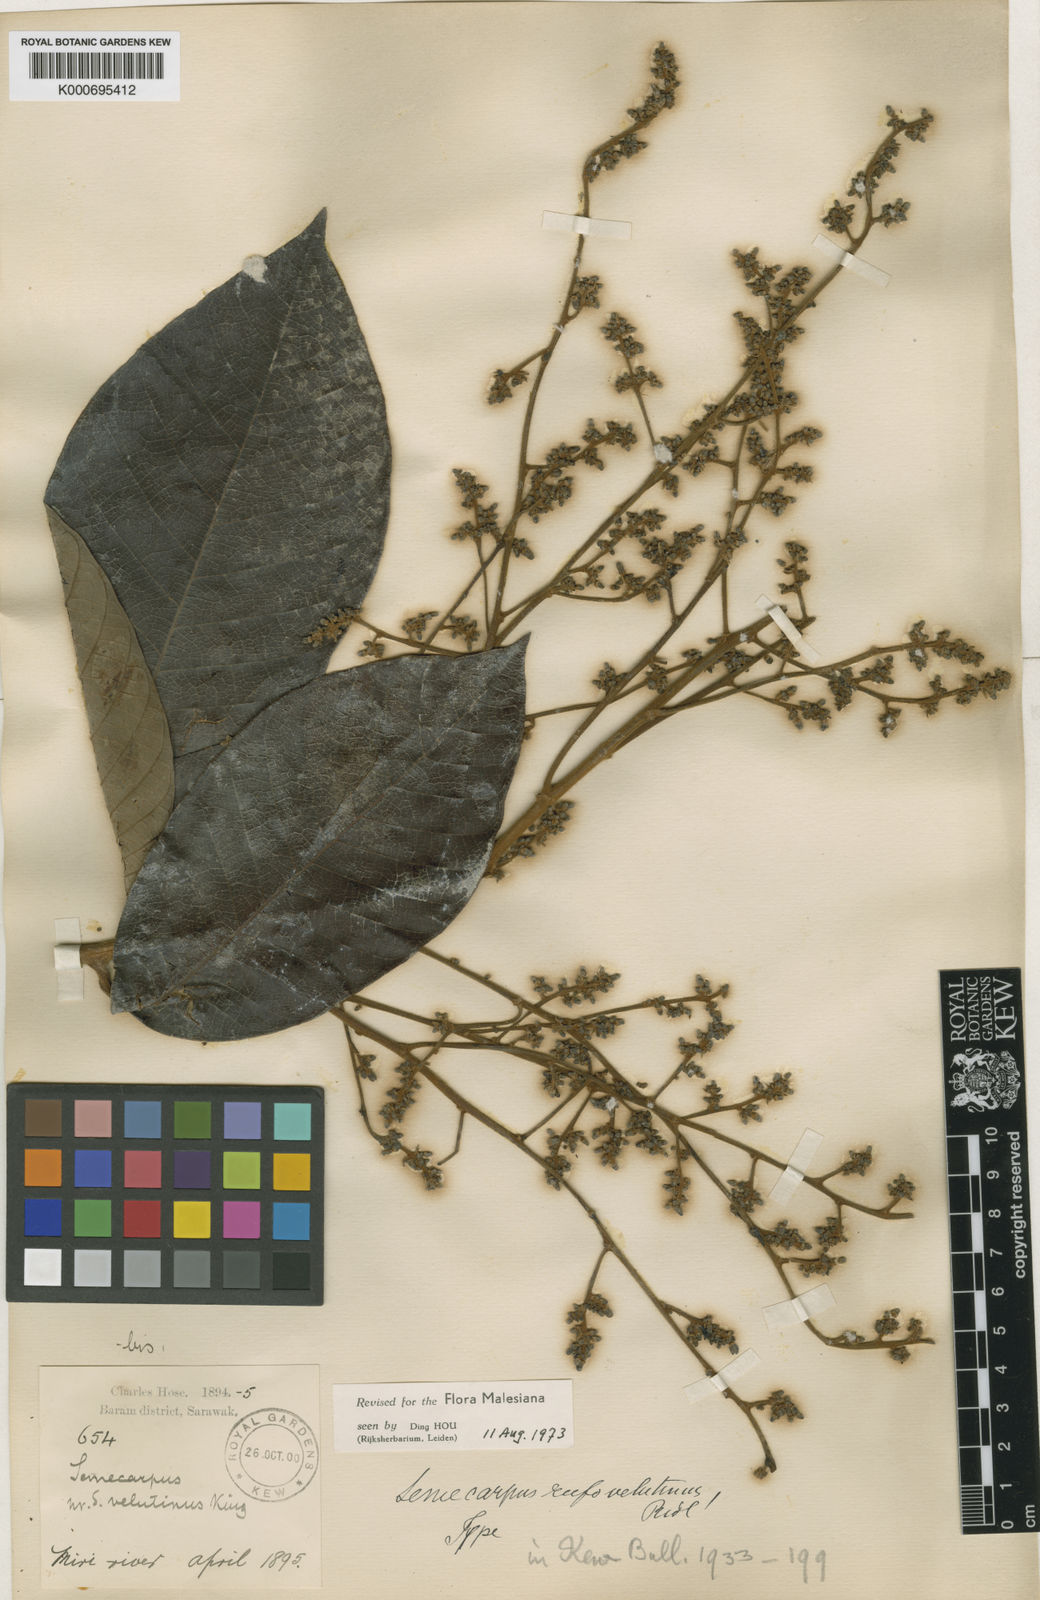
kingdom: Plantae
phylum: Tracheophyta
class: Magnoliopsida
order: Sapindales
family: Anacardiaceae
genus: Semecarpus
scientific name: Semecarpus rufovelutinus
